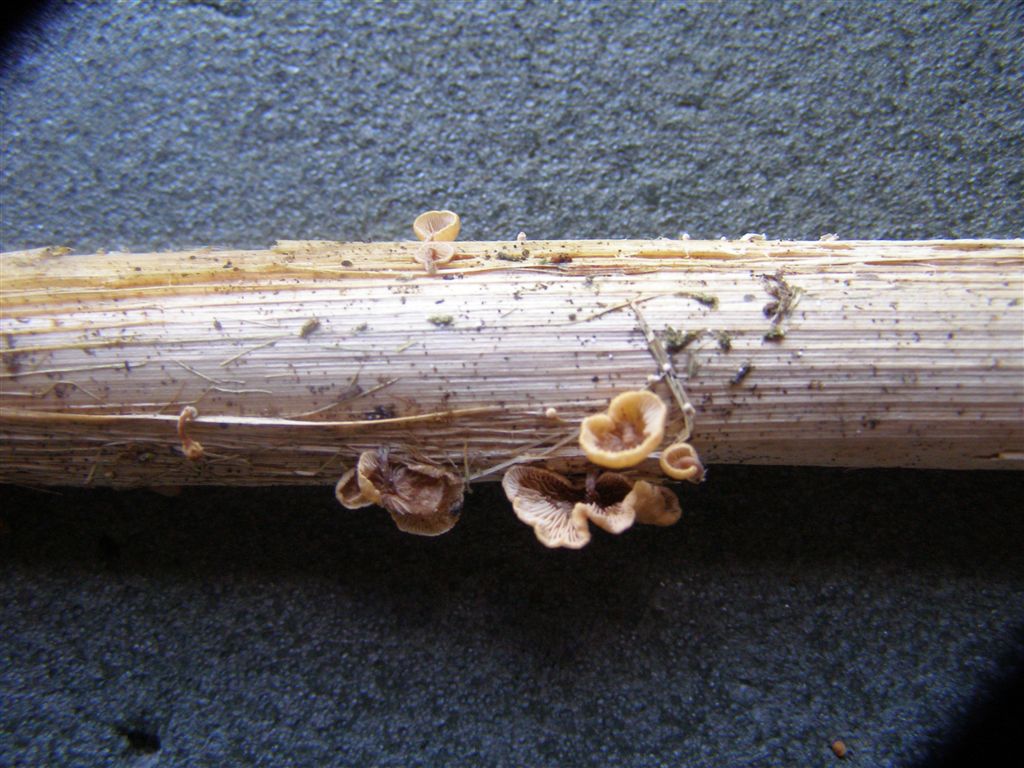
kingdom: Fungi
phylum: Basidiomycota
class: Agaricomycetes
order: Agaricales
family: Strophariaceae
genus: Deconica
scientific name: Deconica phillipsii
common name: almindelig stråhat
